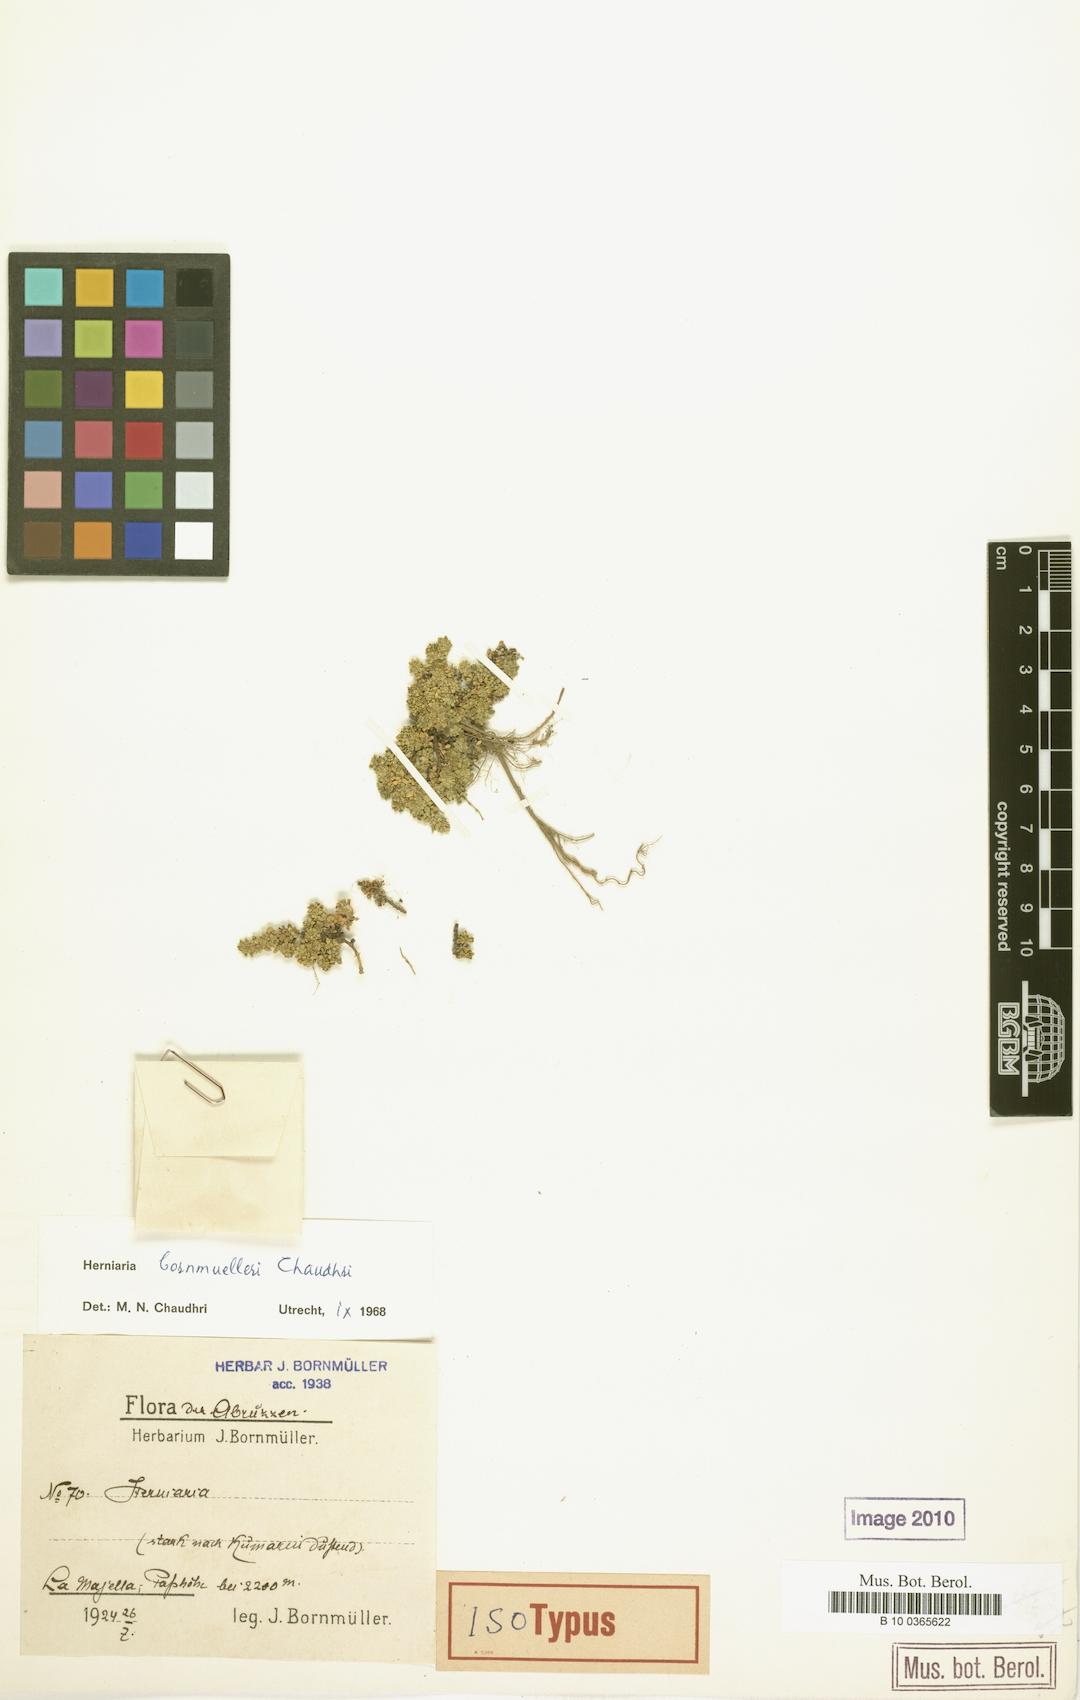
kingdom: Plantae
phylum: Tracheophyta
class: Magnoliopsida
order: Caryophyllales
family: Caryophyllaceae
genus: Herniaria
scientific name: Herniaria bornmuelleri
